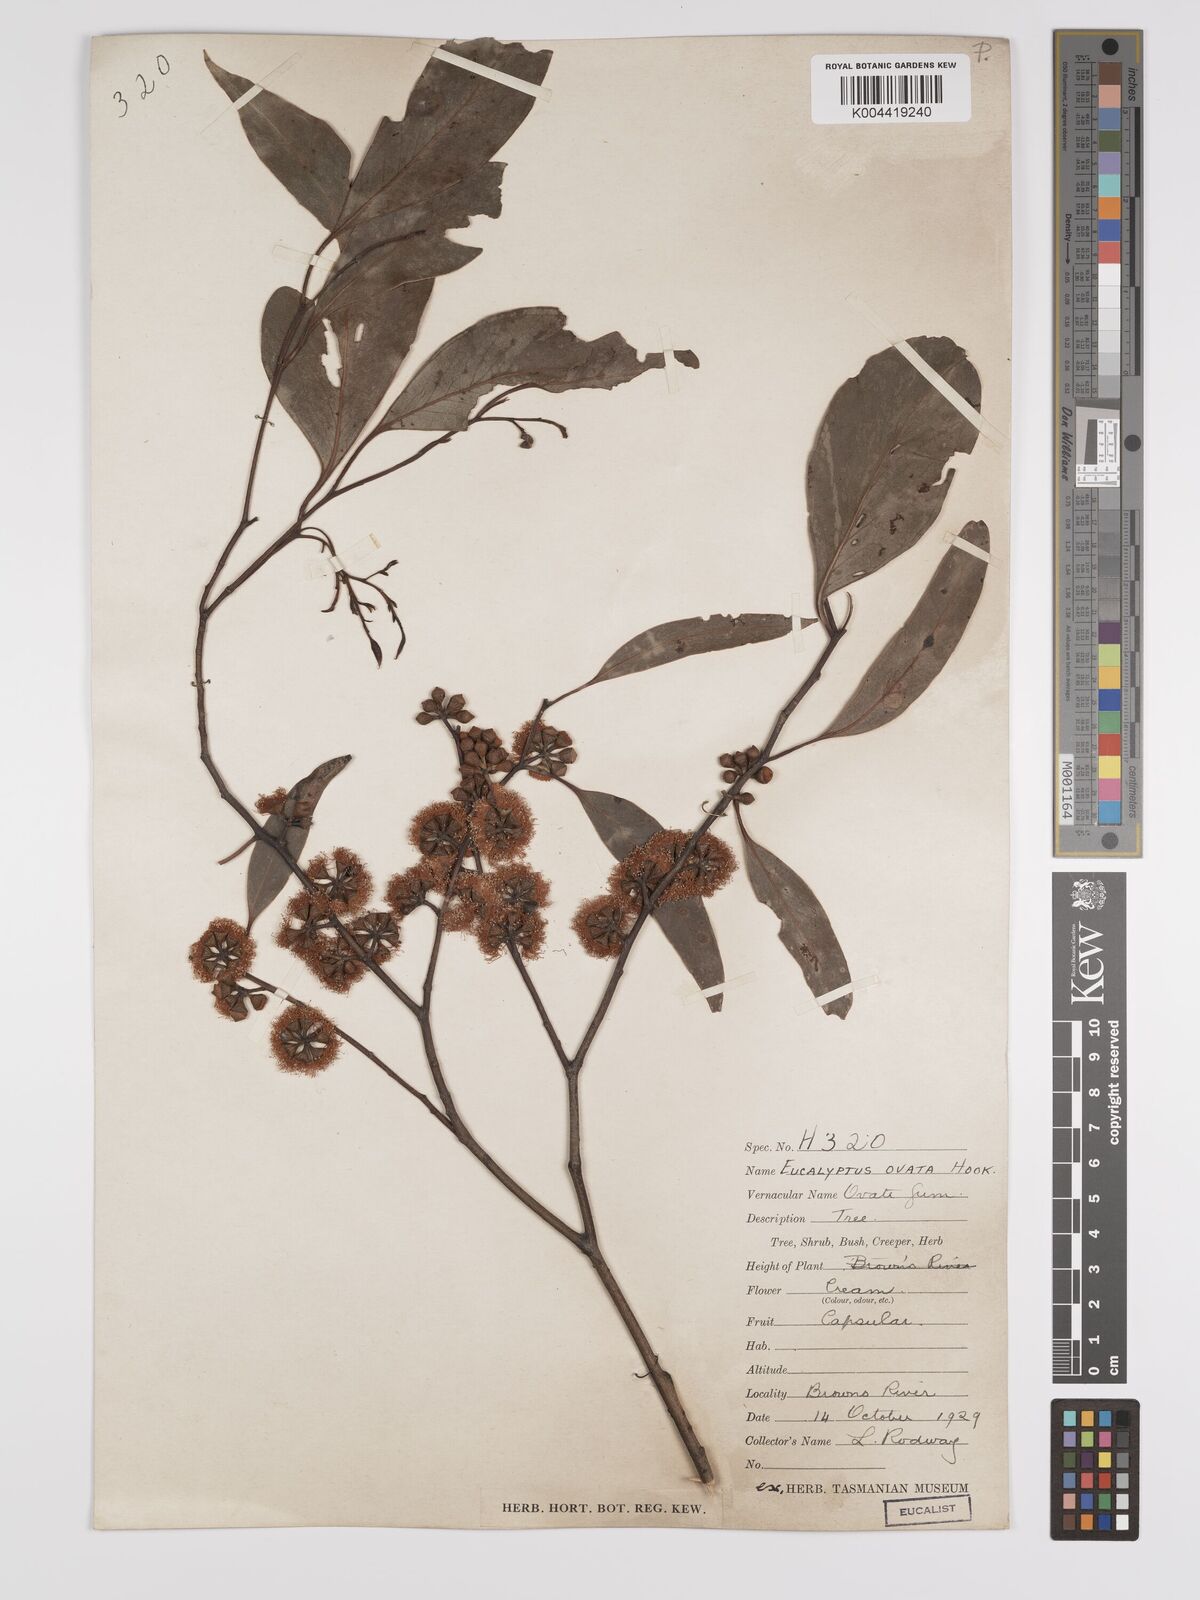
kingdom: Plantae
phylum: Tracheophyta
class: Magnoliopsida
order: Myrtales
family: Myrtaceae
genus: Eucalyptus
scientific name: Eucalyptus ovata
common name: Black-gum
